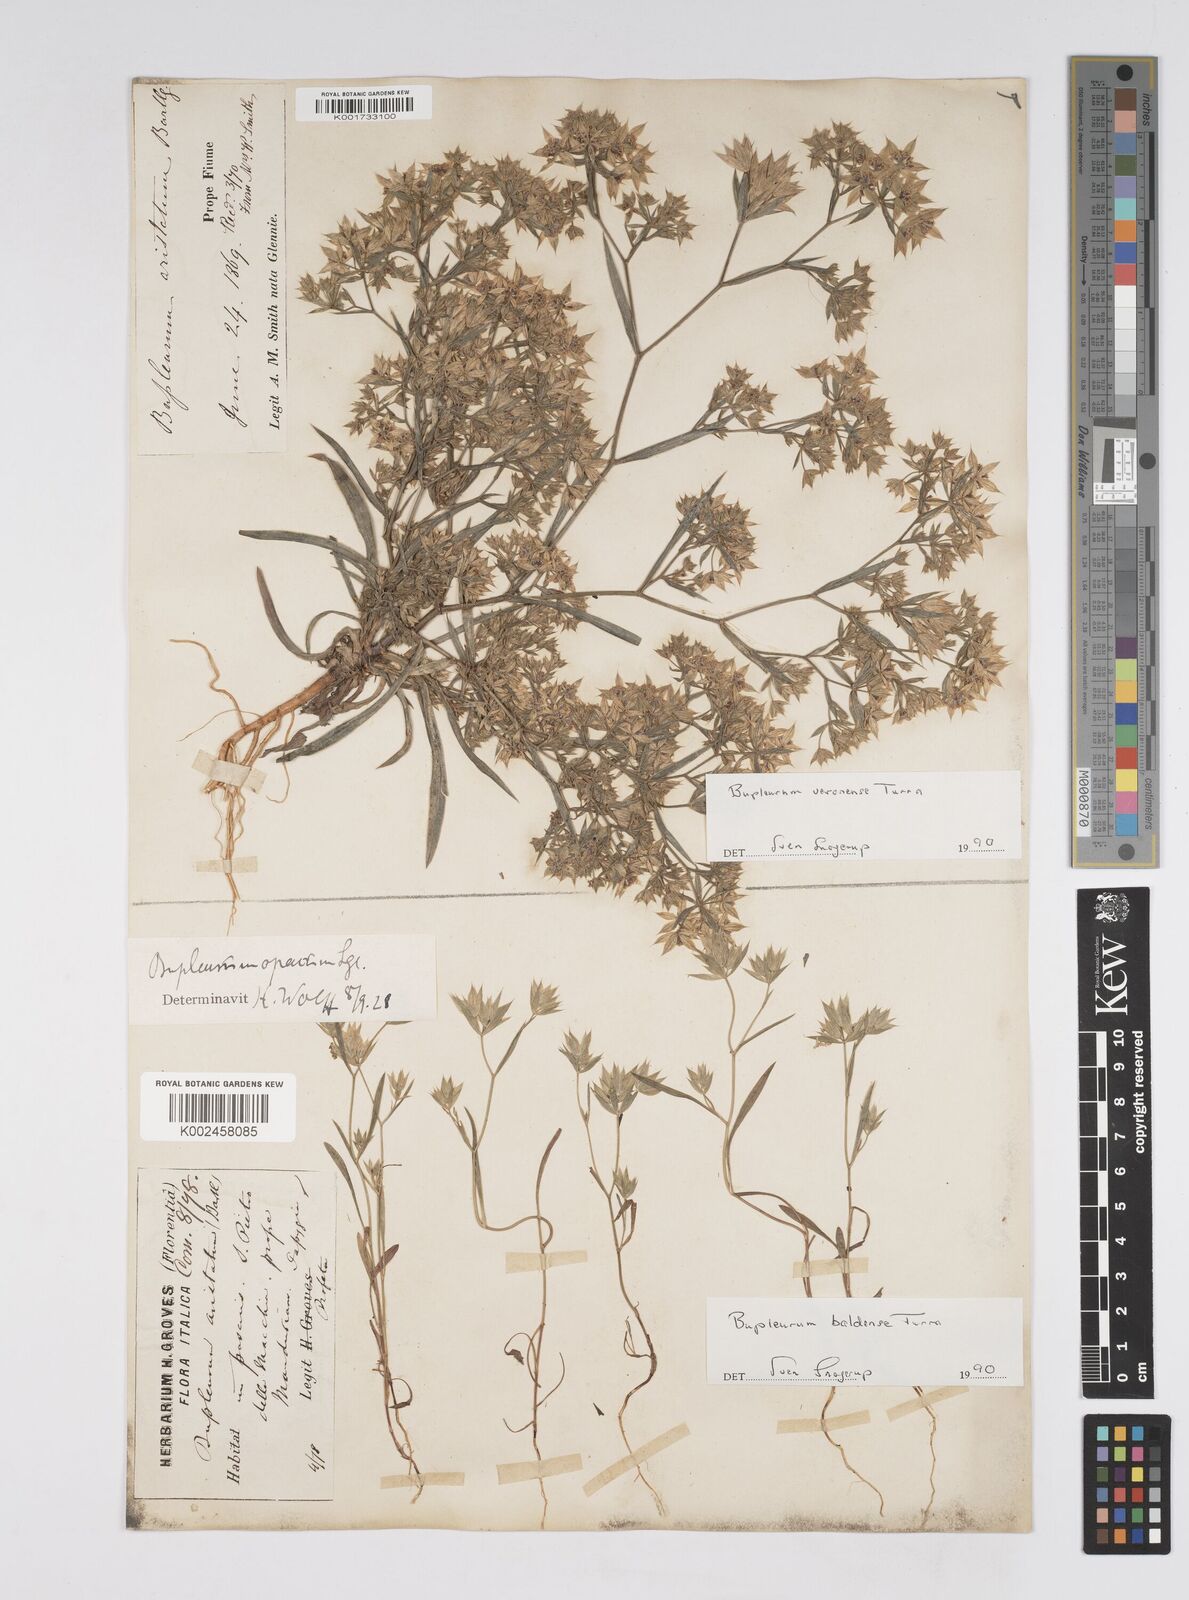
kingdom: Plantae
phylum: Tracheophyta
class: Magnoliopsida
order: Apiales
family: Apiaceae
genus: Bupleurum
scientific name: Bupleurum baldense
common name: Small hare's-ear
